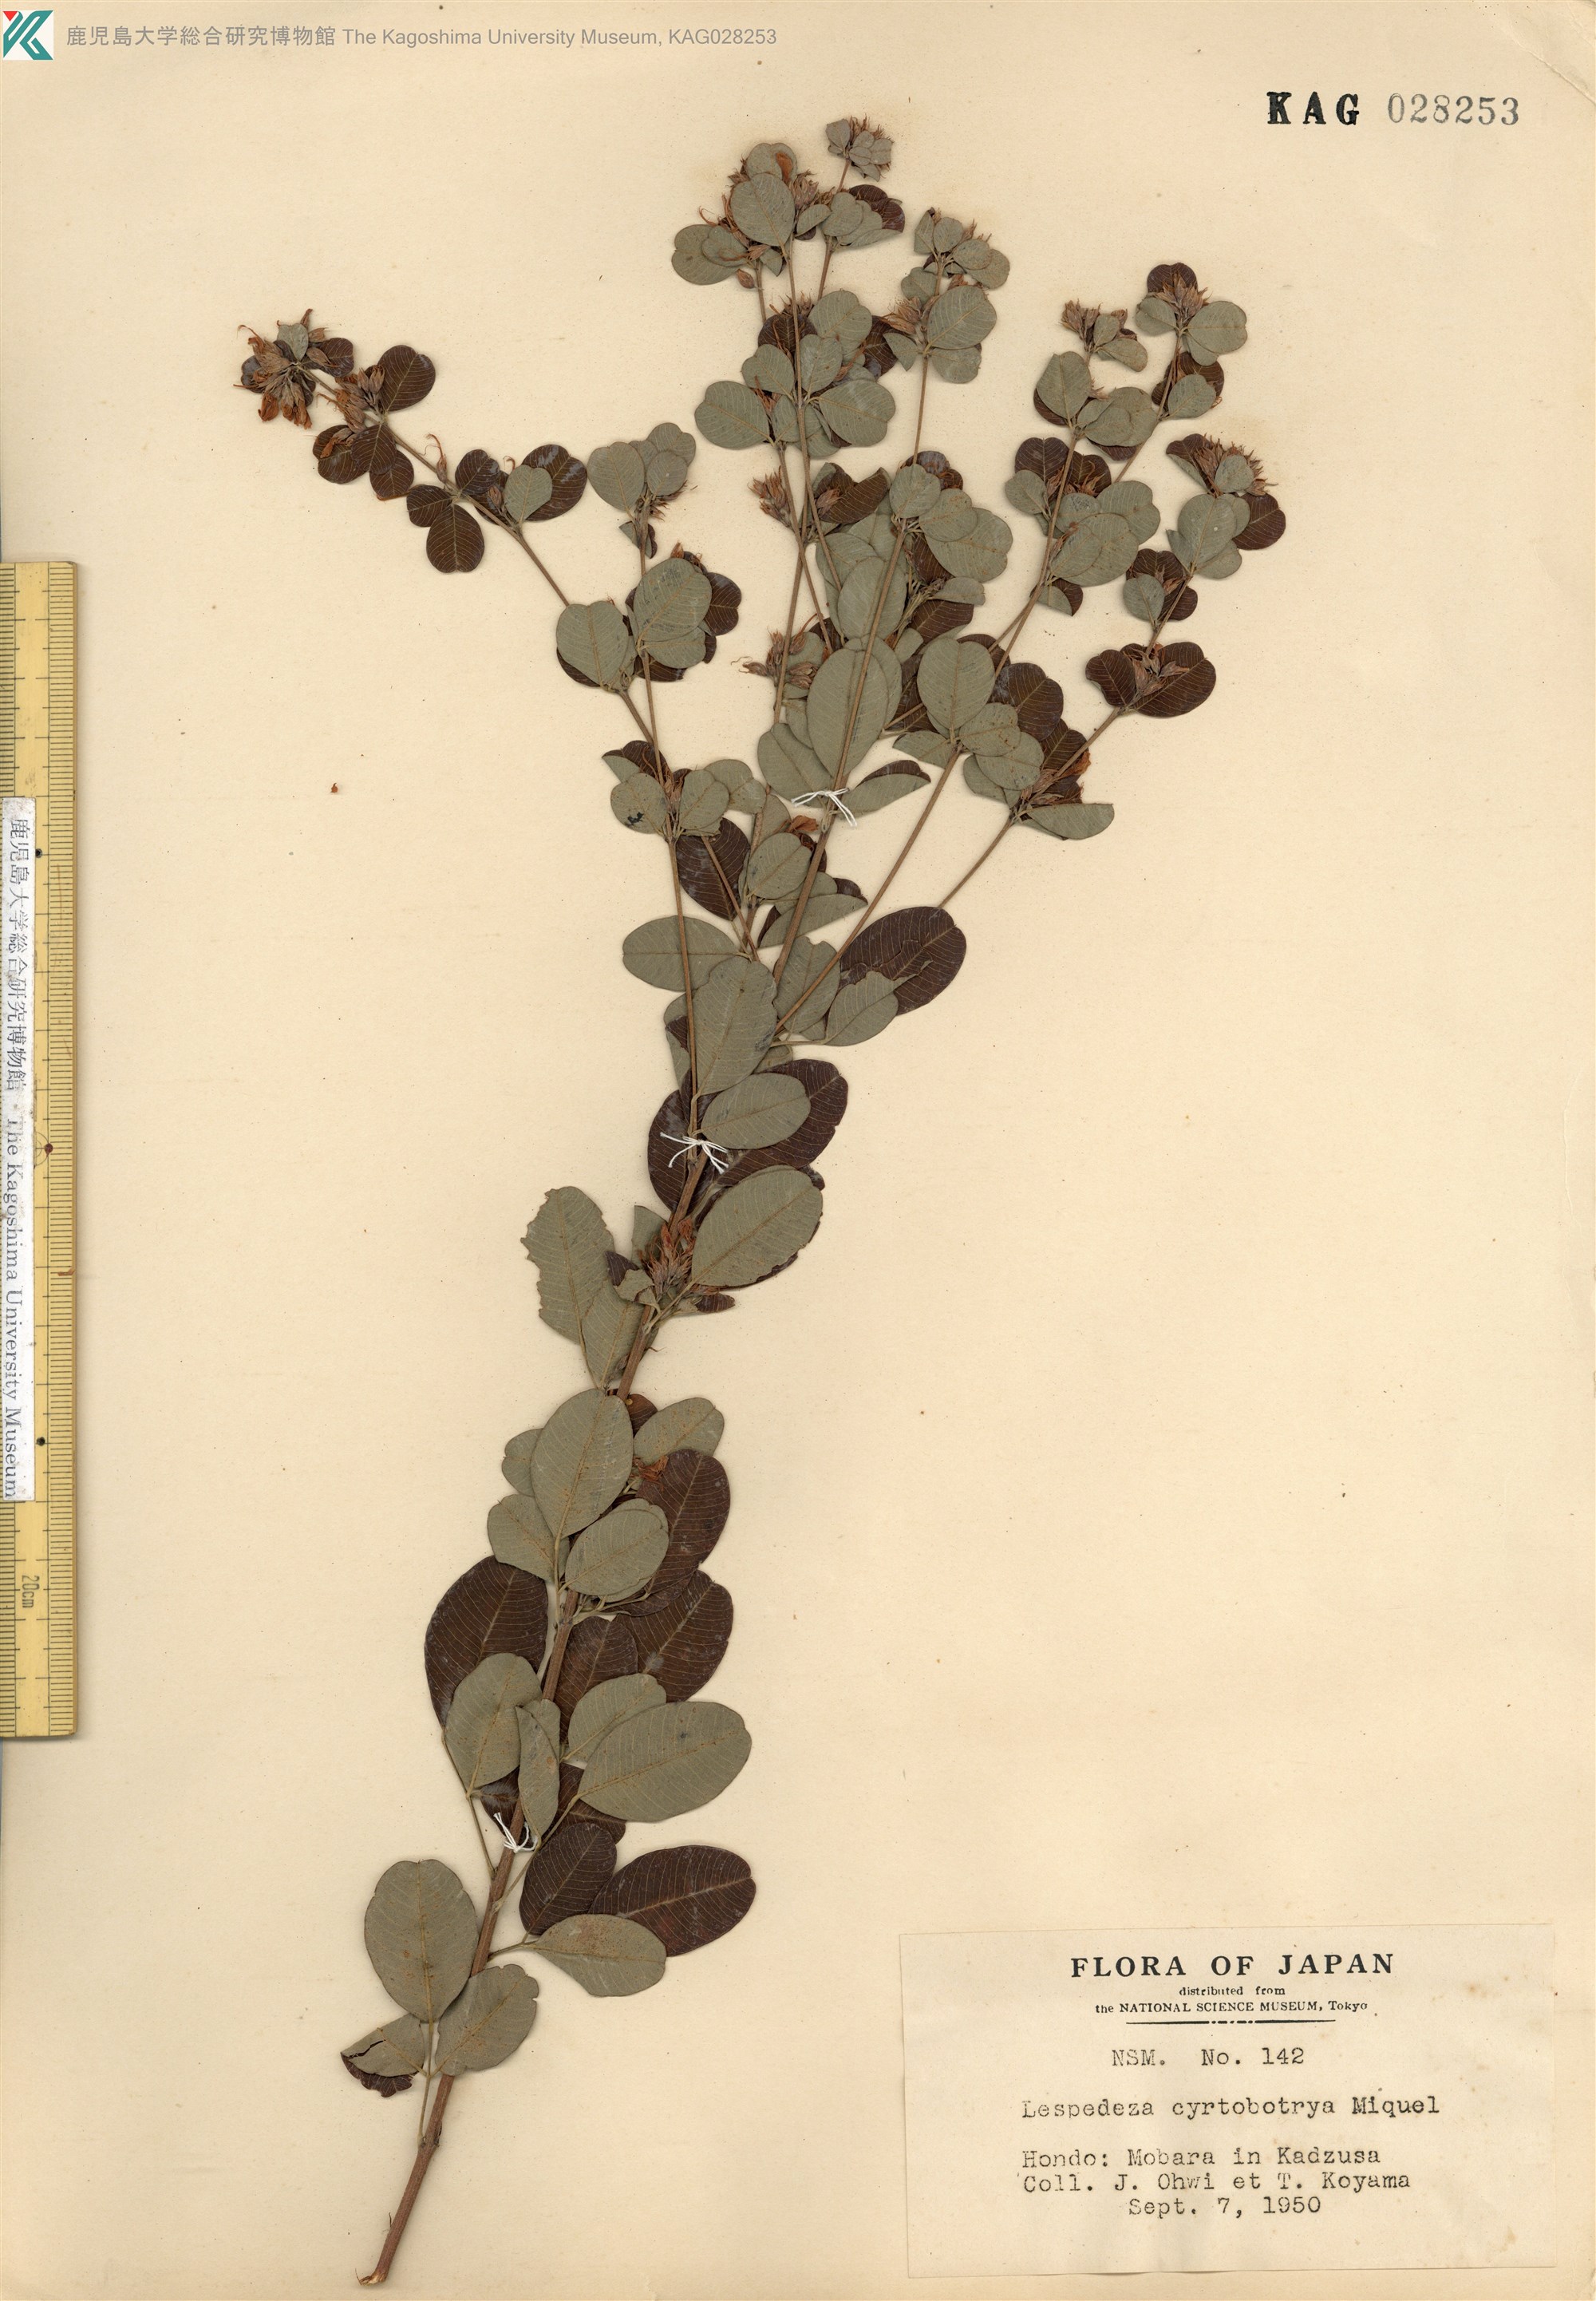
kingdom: Plantae
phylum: Tracheophyta
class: Magnoliopsida
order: Fabales
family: Fabaceae
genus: Lespedeza
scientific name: Lespedeza cyrtobotrya
